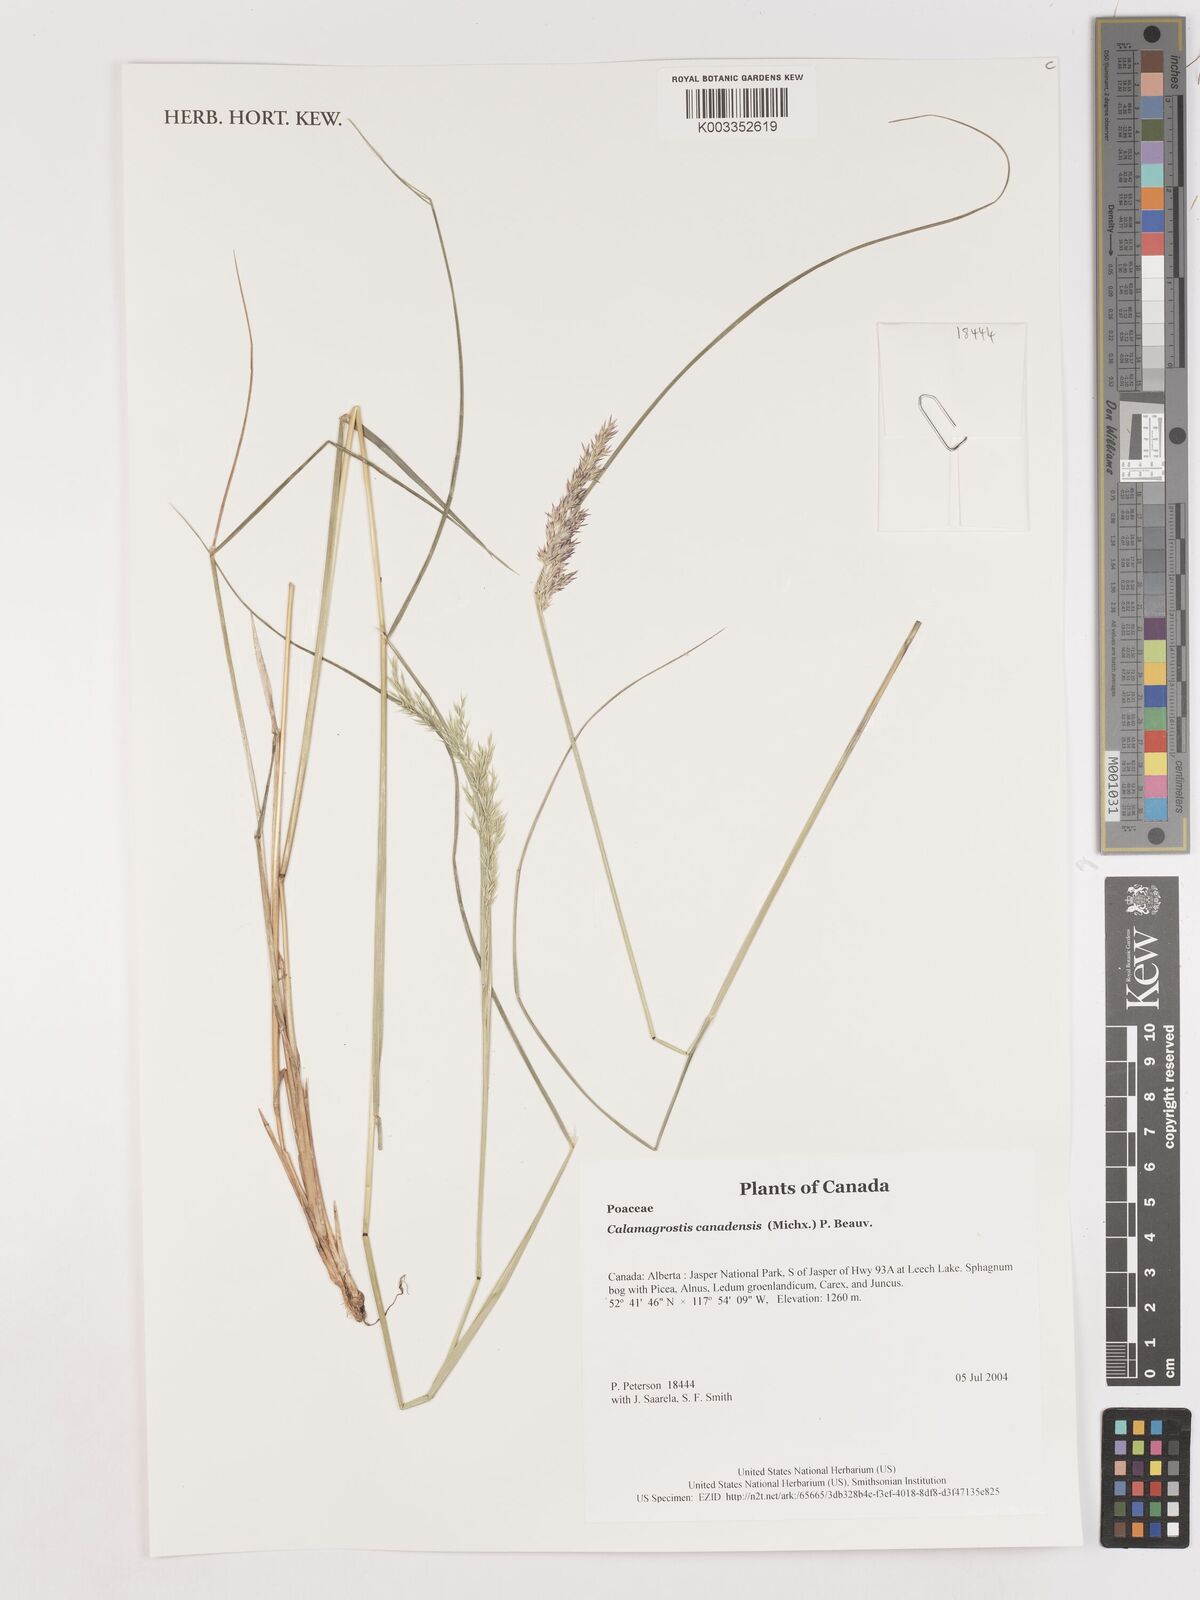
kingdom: Plantae
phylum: Tracheophyta
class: Liliopsida
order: Poales
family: Poaceae
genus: Calamagrostis
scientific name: Calamagrostis canadensis
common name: Canada bluejoint
